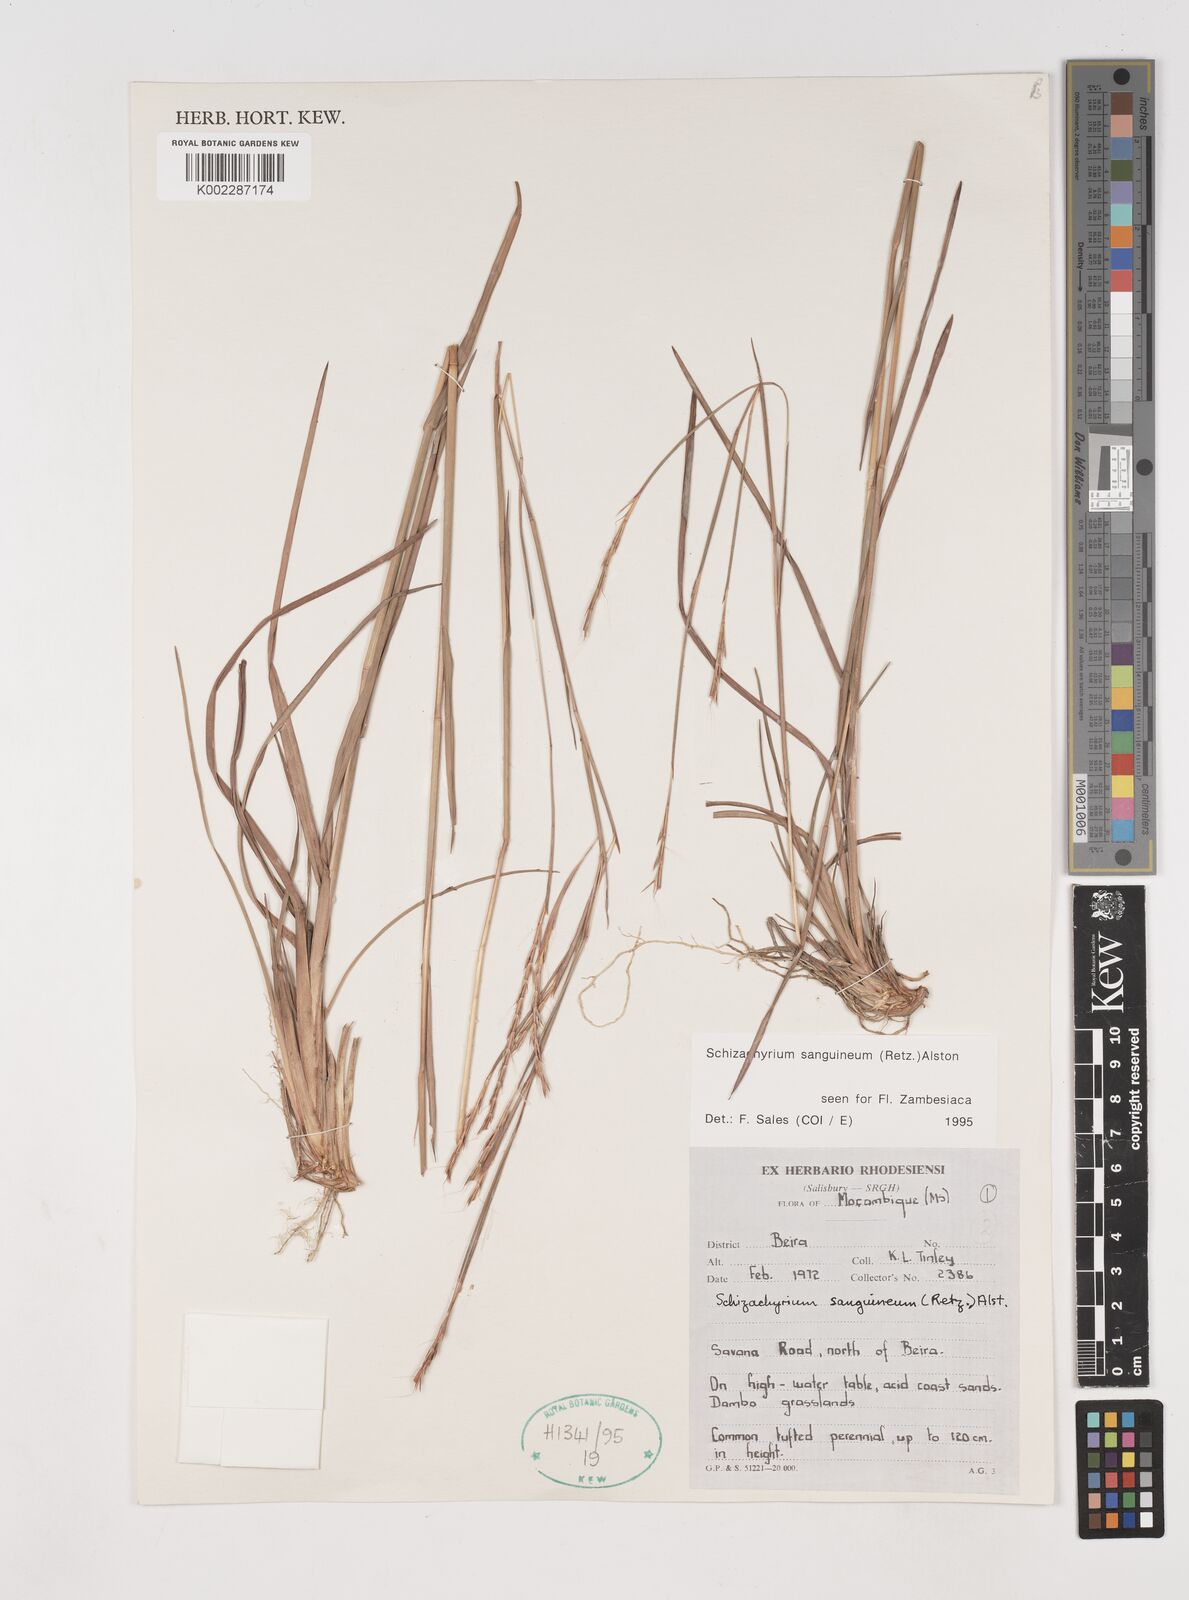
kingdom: Plantae
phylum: Tracheophyta
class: Liliopsida
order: Poales
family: Poaceae
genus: Schizachyrium
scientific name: Schizachyrium sanguineum
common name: Crimson bluestem
